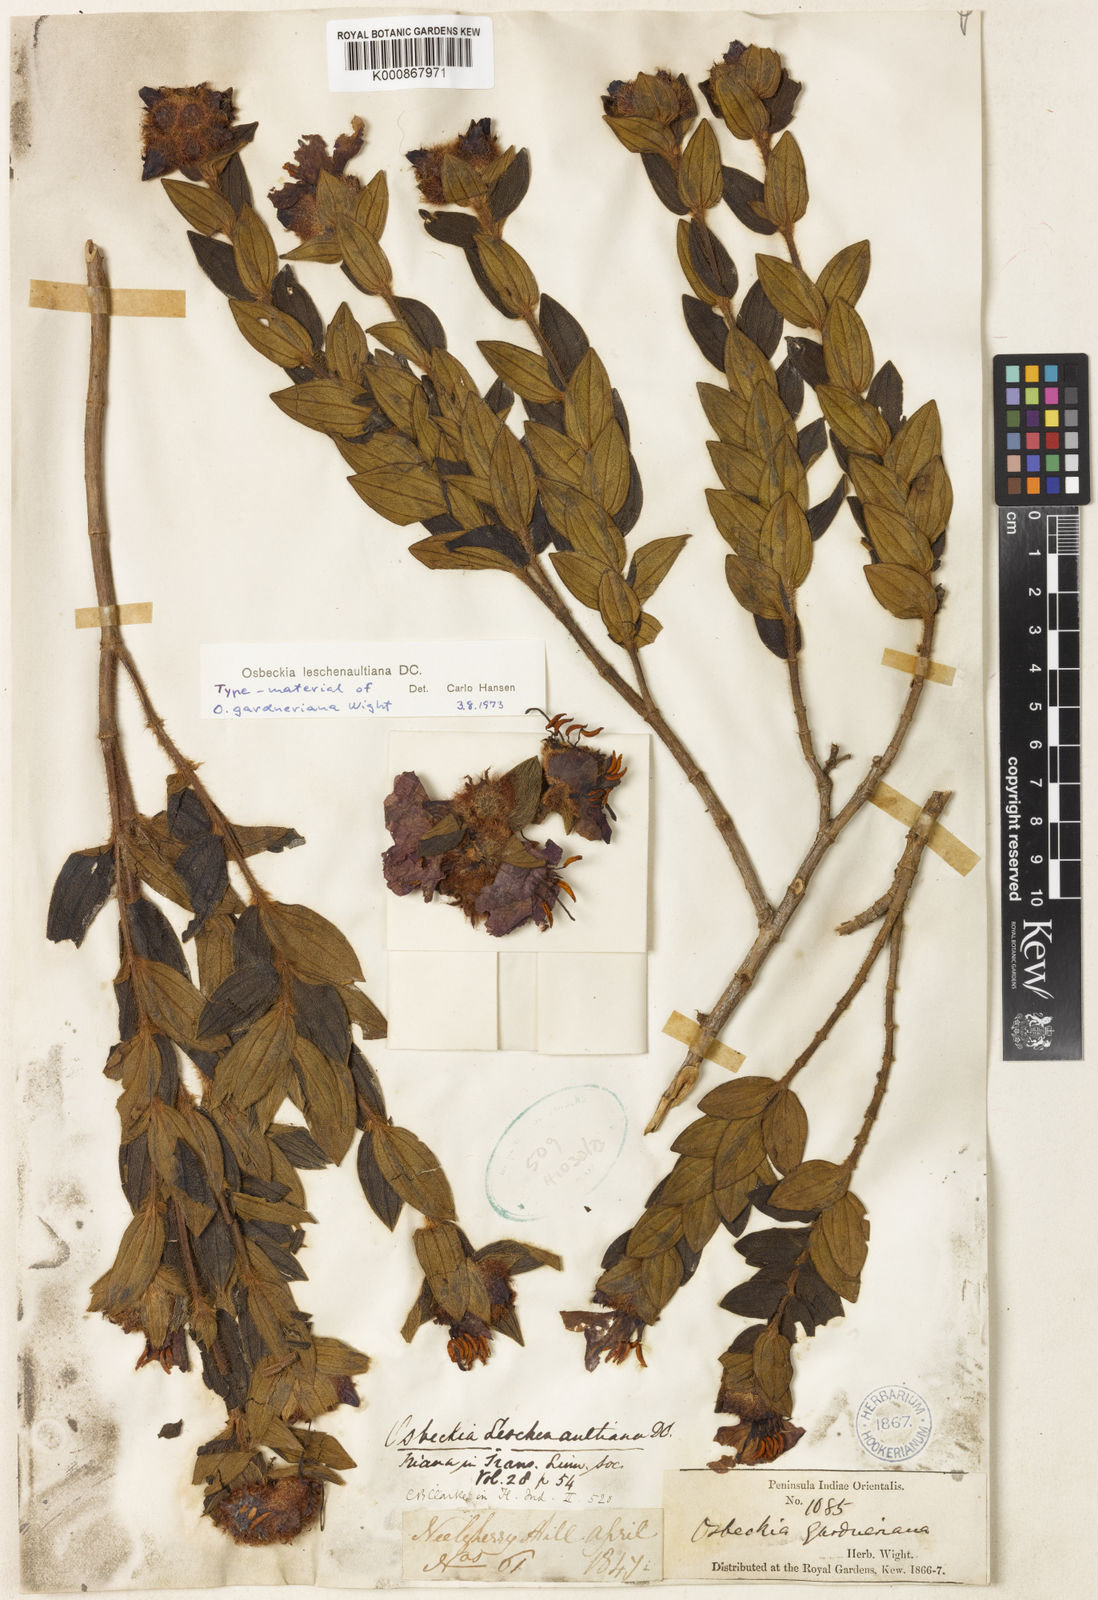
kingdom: Plantae
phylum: Tracheophyta
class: Magnoliopsida
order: Myrtales
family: Melastomataceae
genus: Osbeckia
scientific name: Osbeckia leschenaultiana
